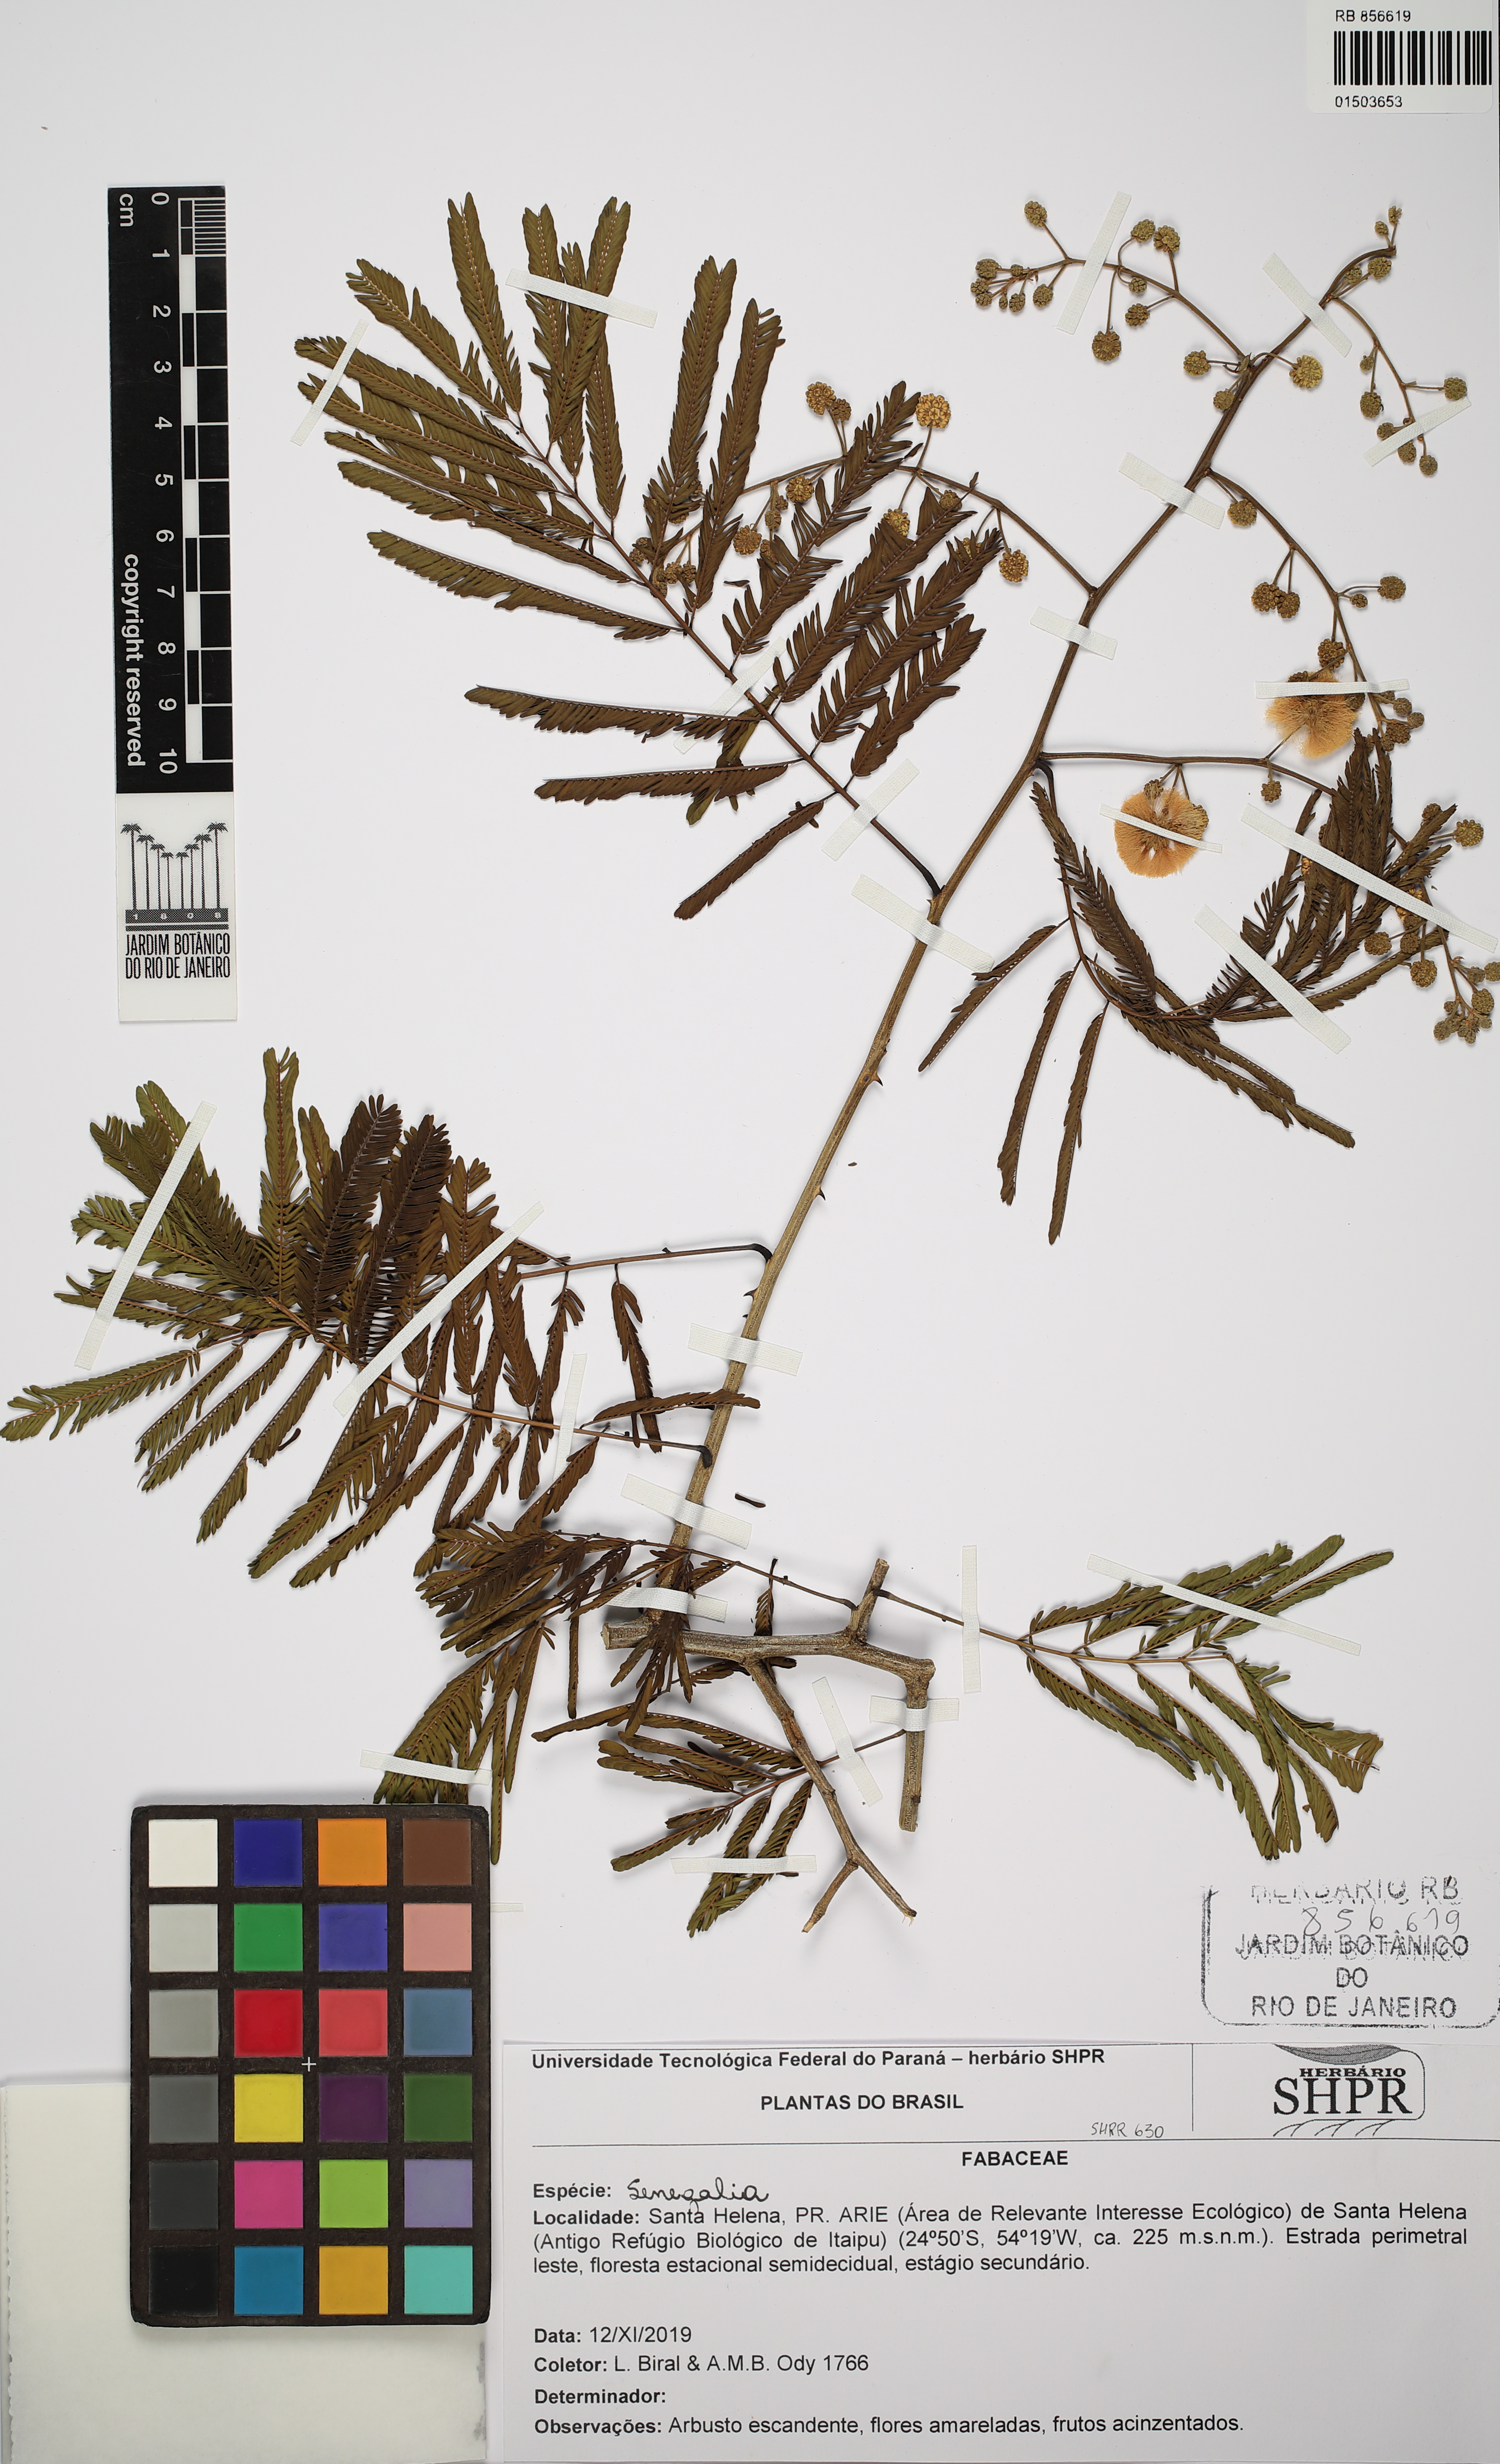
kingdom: Plantae
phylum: Tracheophyta
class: Magnoliopsida
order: Fabales
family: Fabaceae
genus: Senegalia
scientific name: Senegalia
